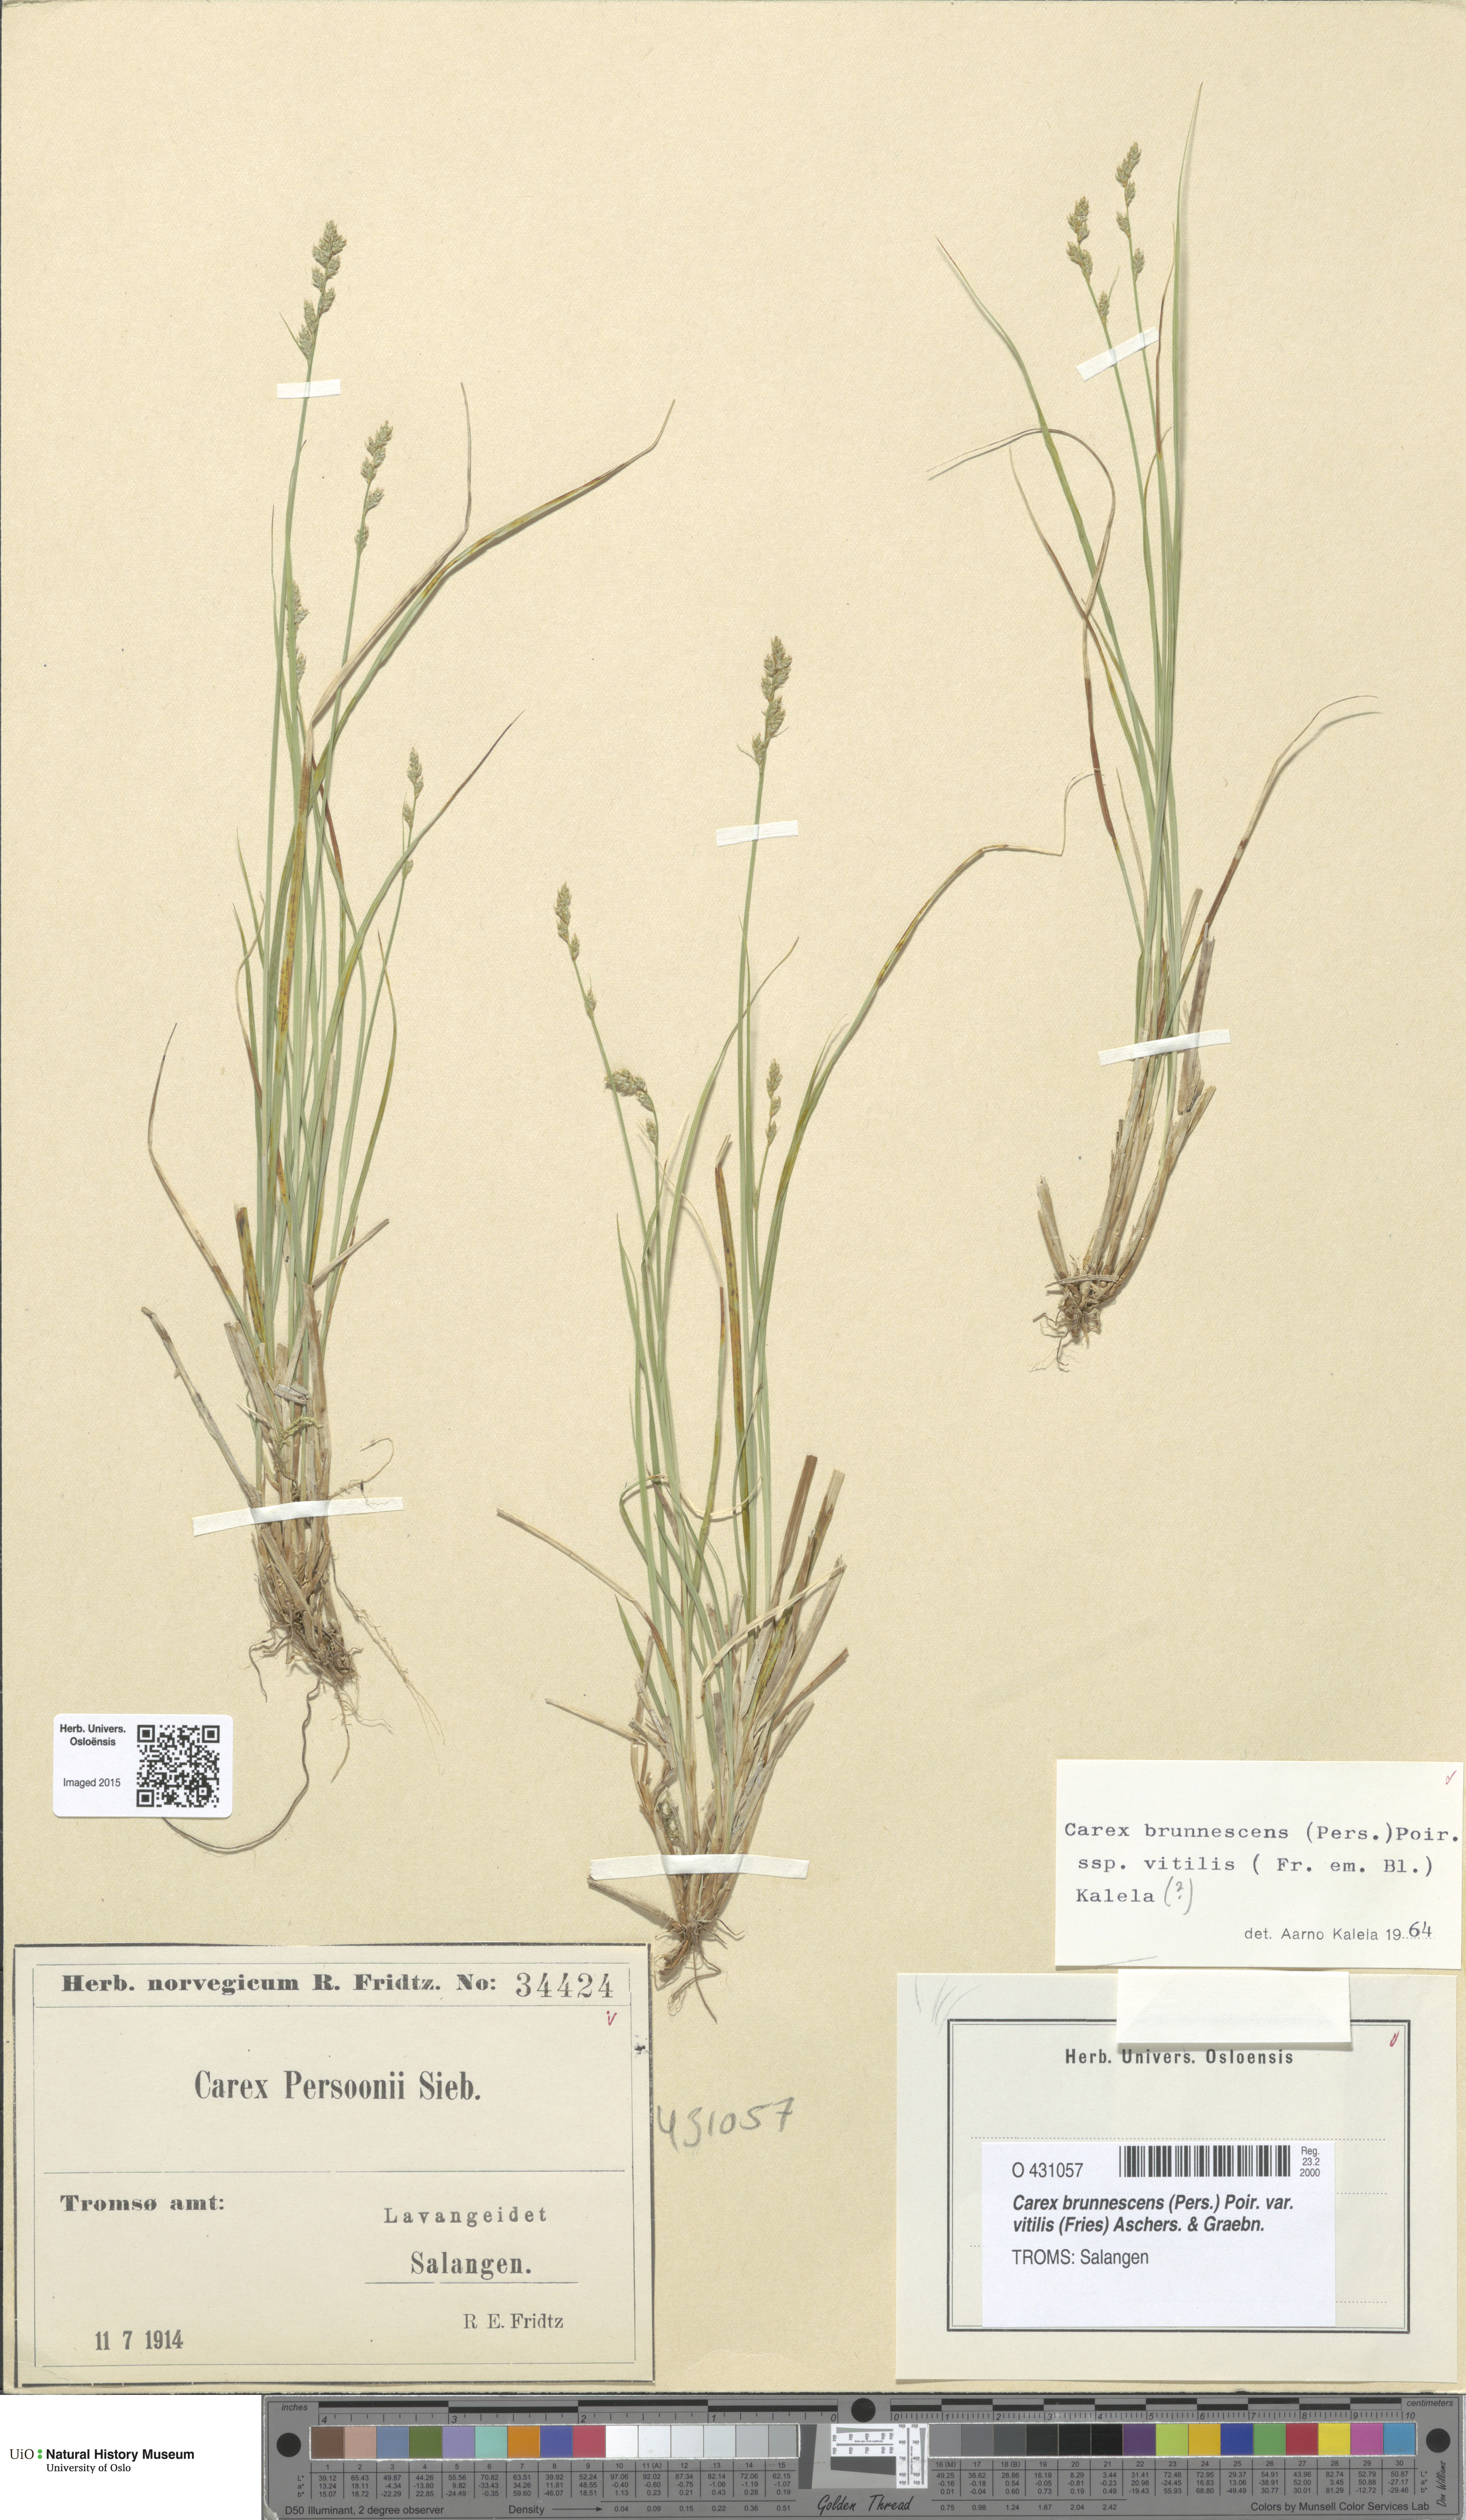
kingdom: Plantae
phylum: Tracheophyta
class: Liliopsida
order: Poales
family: Cyperaceae
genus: Carex
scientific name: Carex brunnescens
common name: Brown sedge
